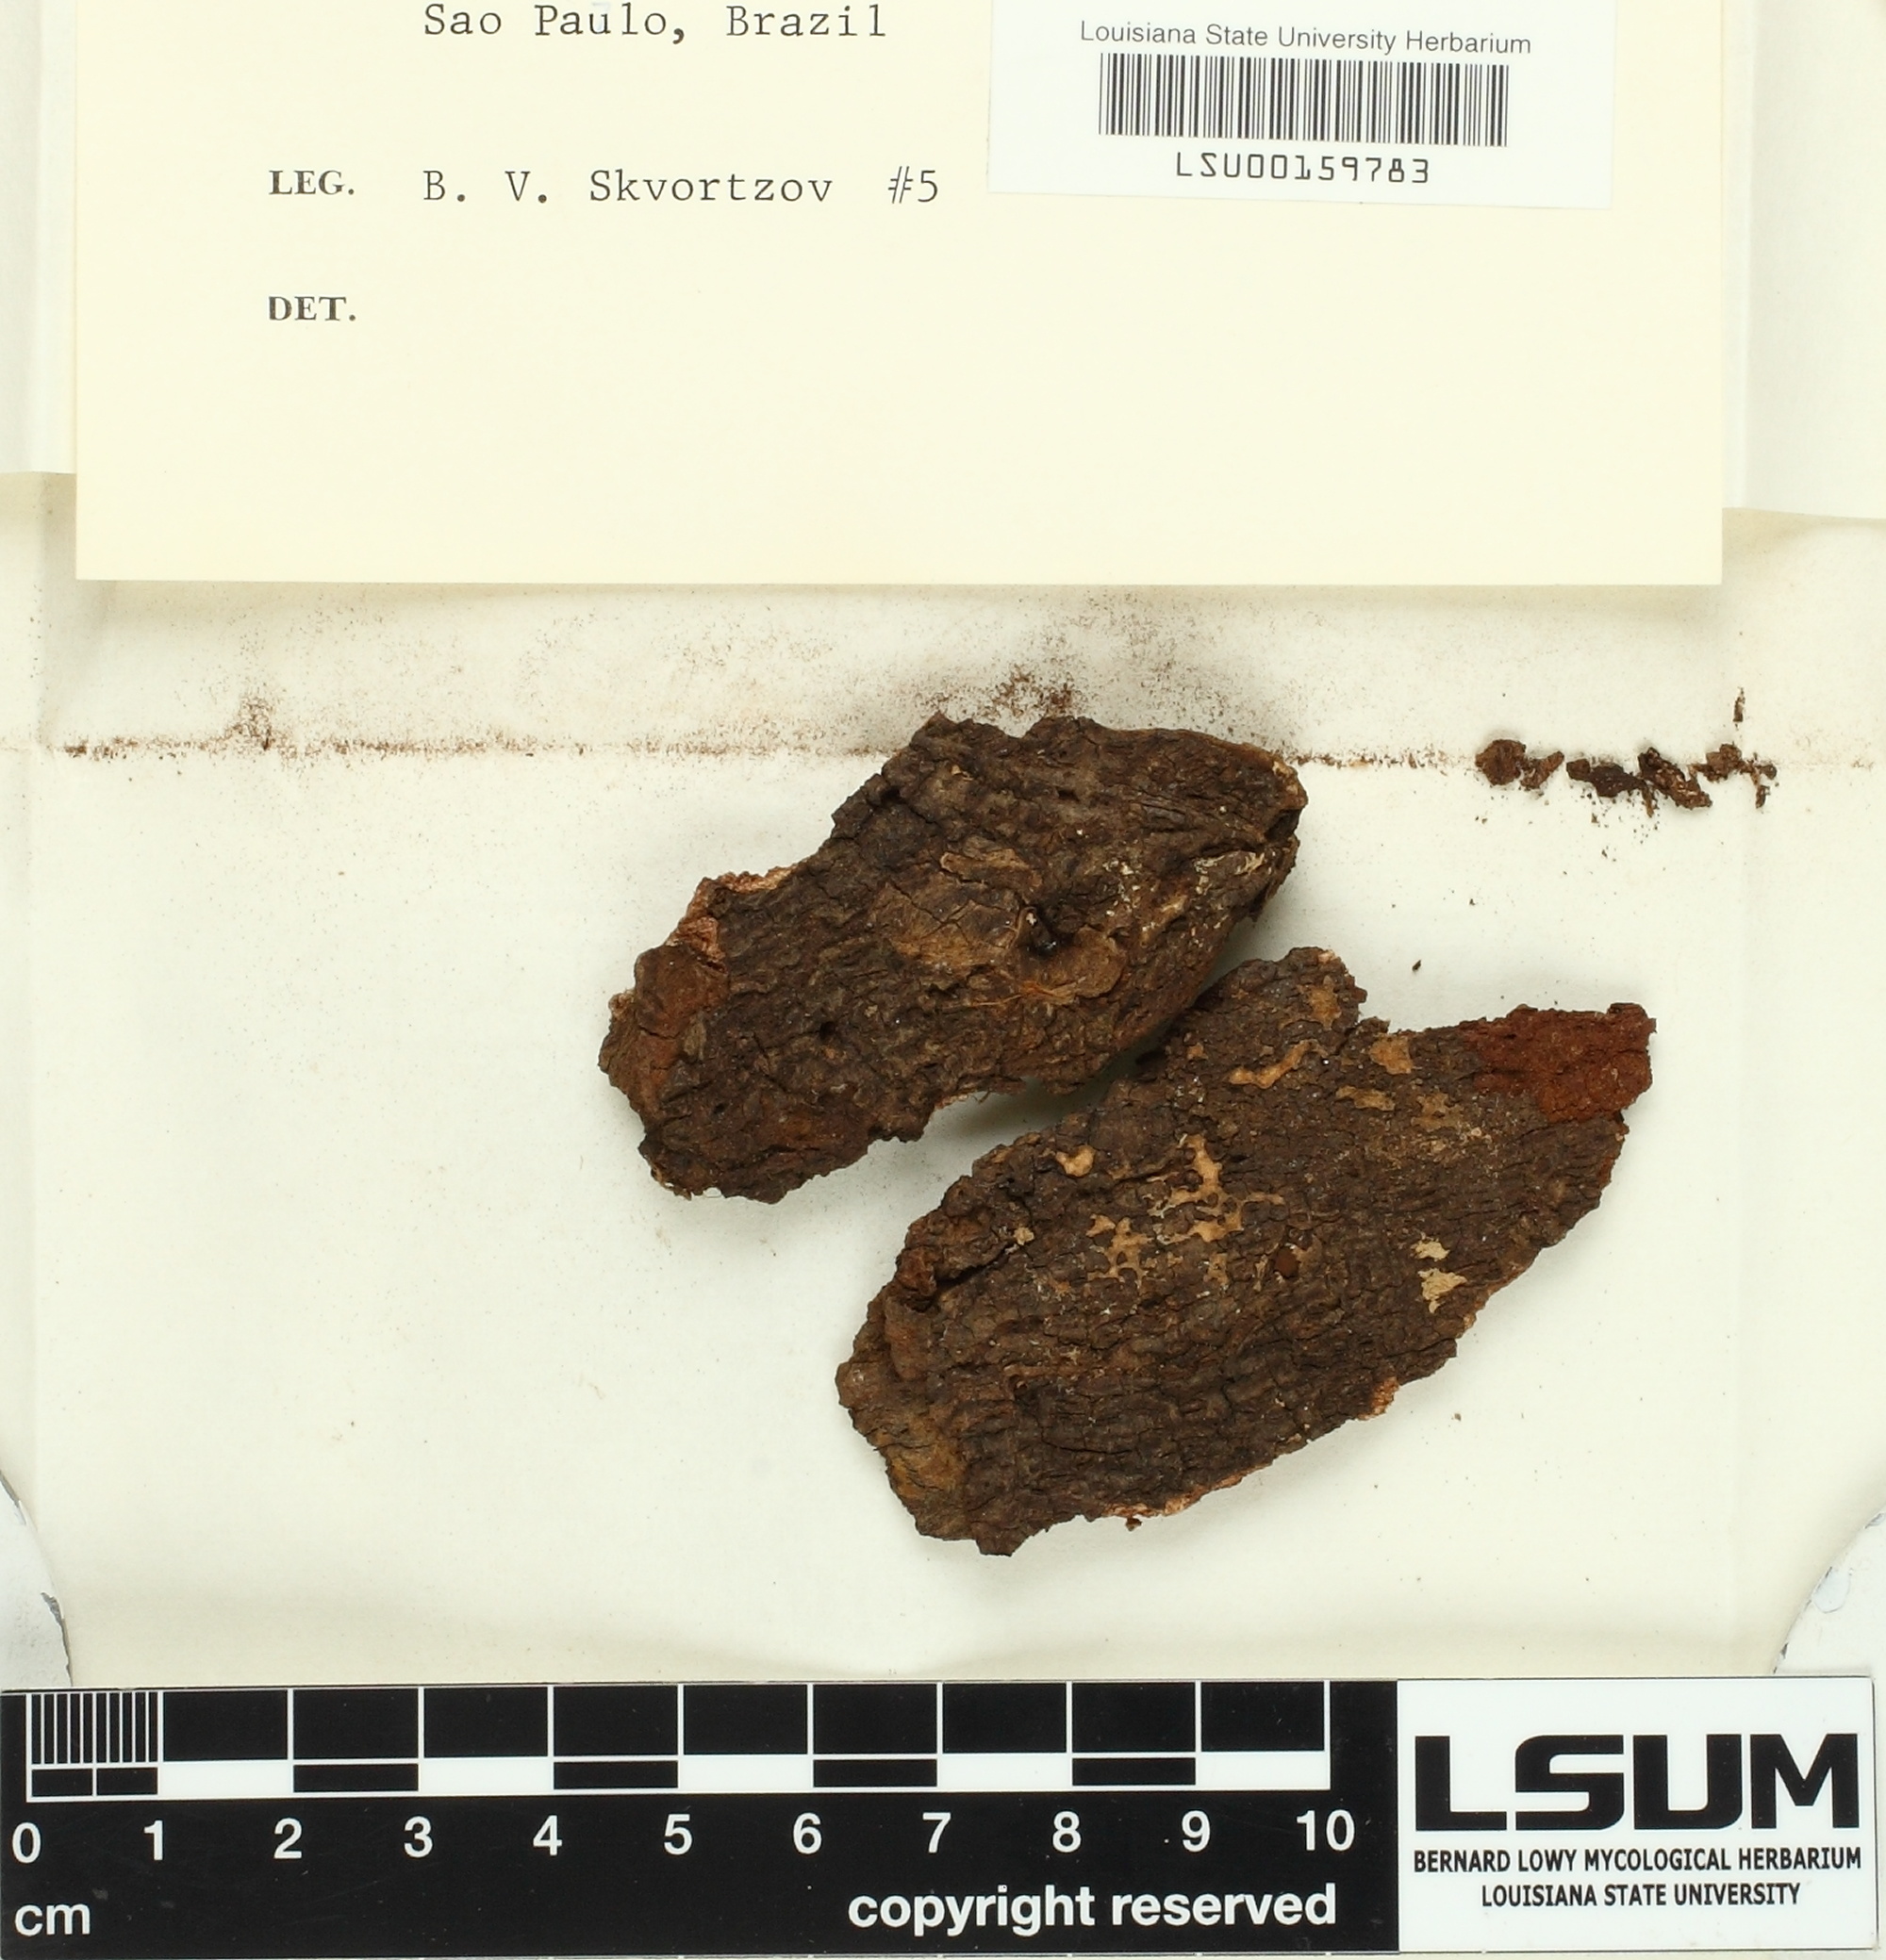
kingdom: Fungi
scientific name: Fungi
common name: Fungi
